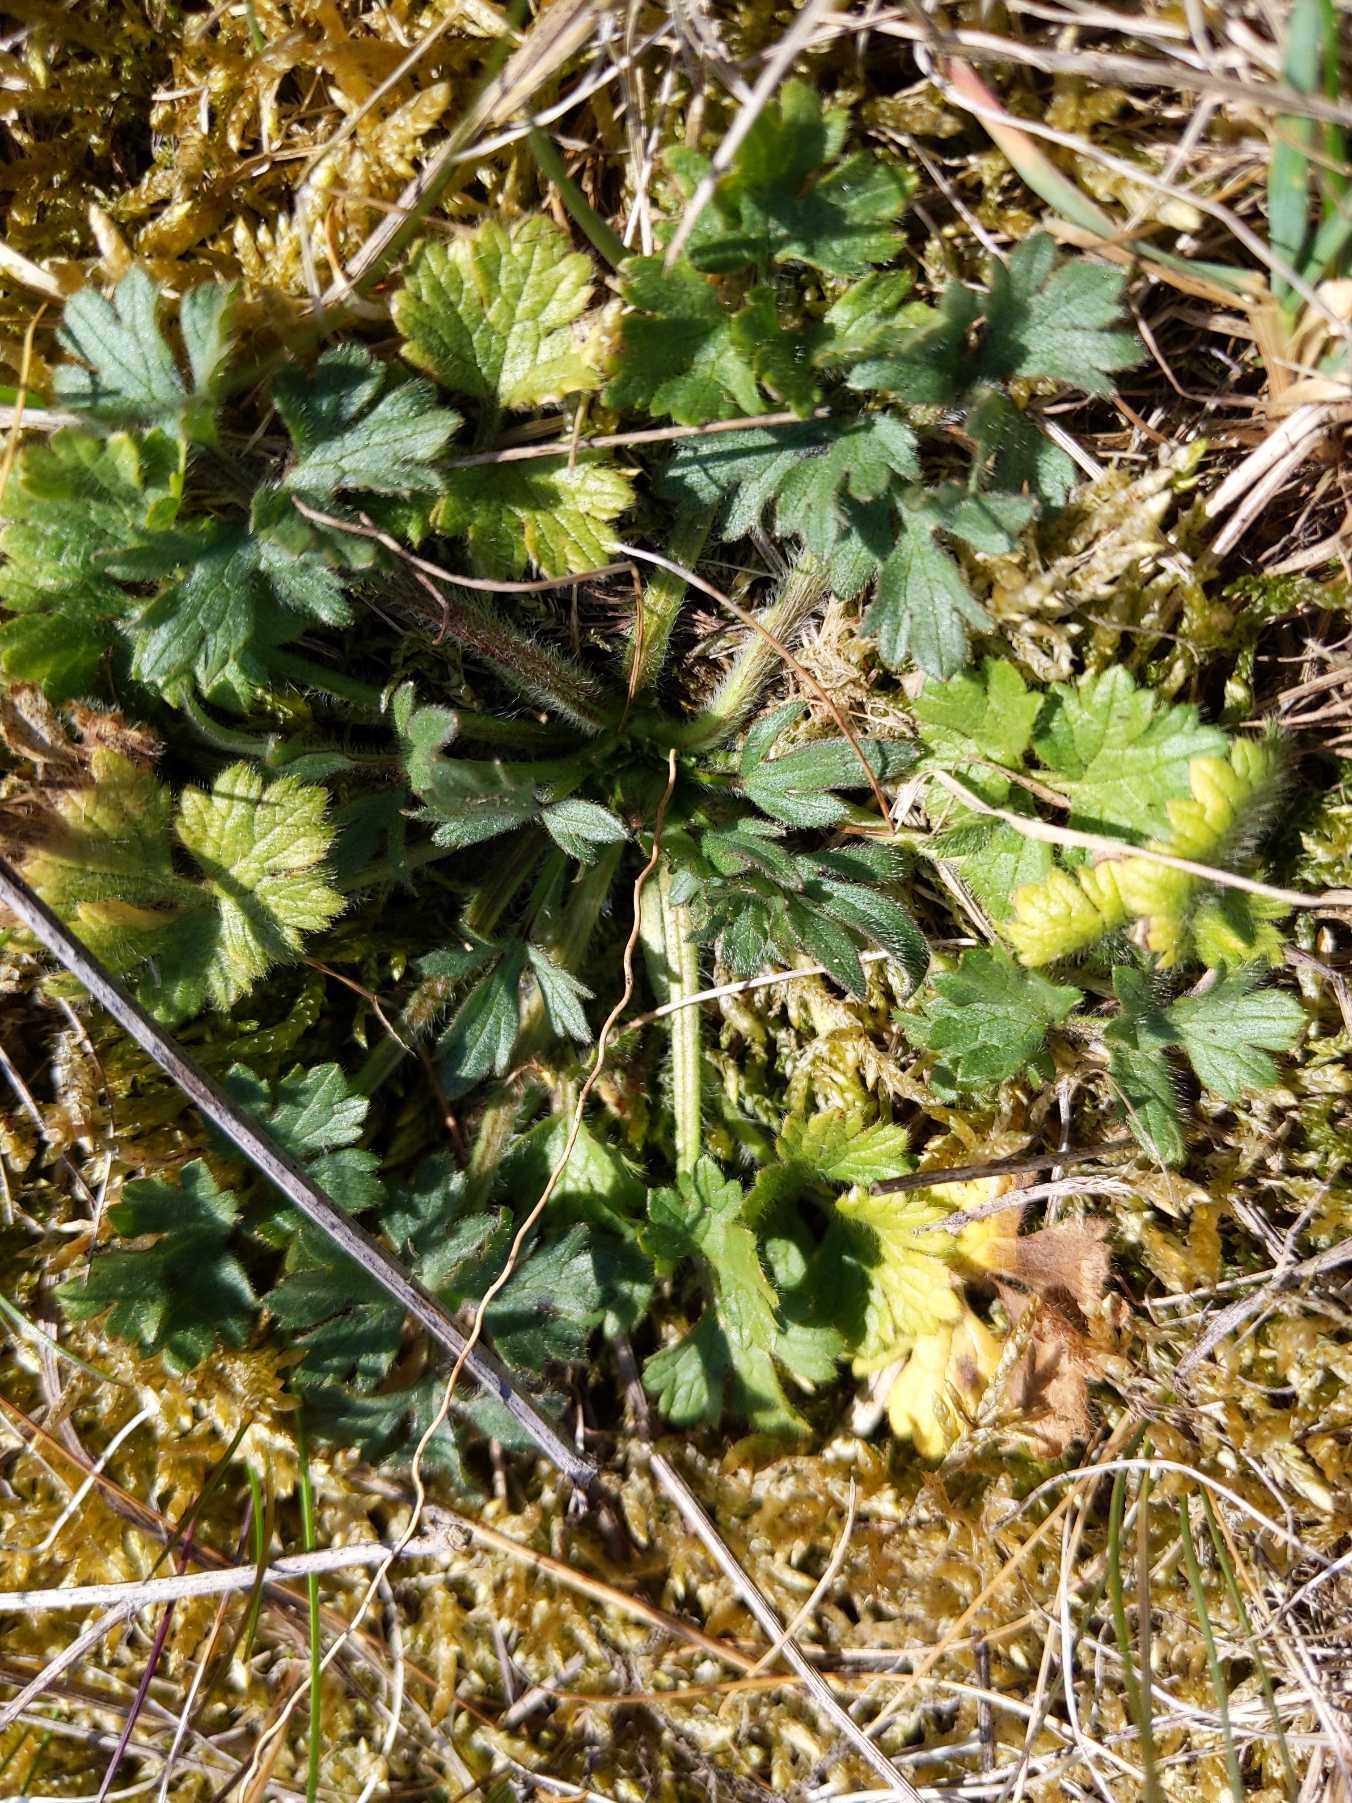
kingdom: Plantae
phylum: Tracheophyta
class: Magnoliopsida
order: Ranunculales
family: Ranunculaceae
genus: Ranunculus
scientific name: Ranunculus bulbosus
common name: Knold-ranunkel
